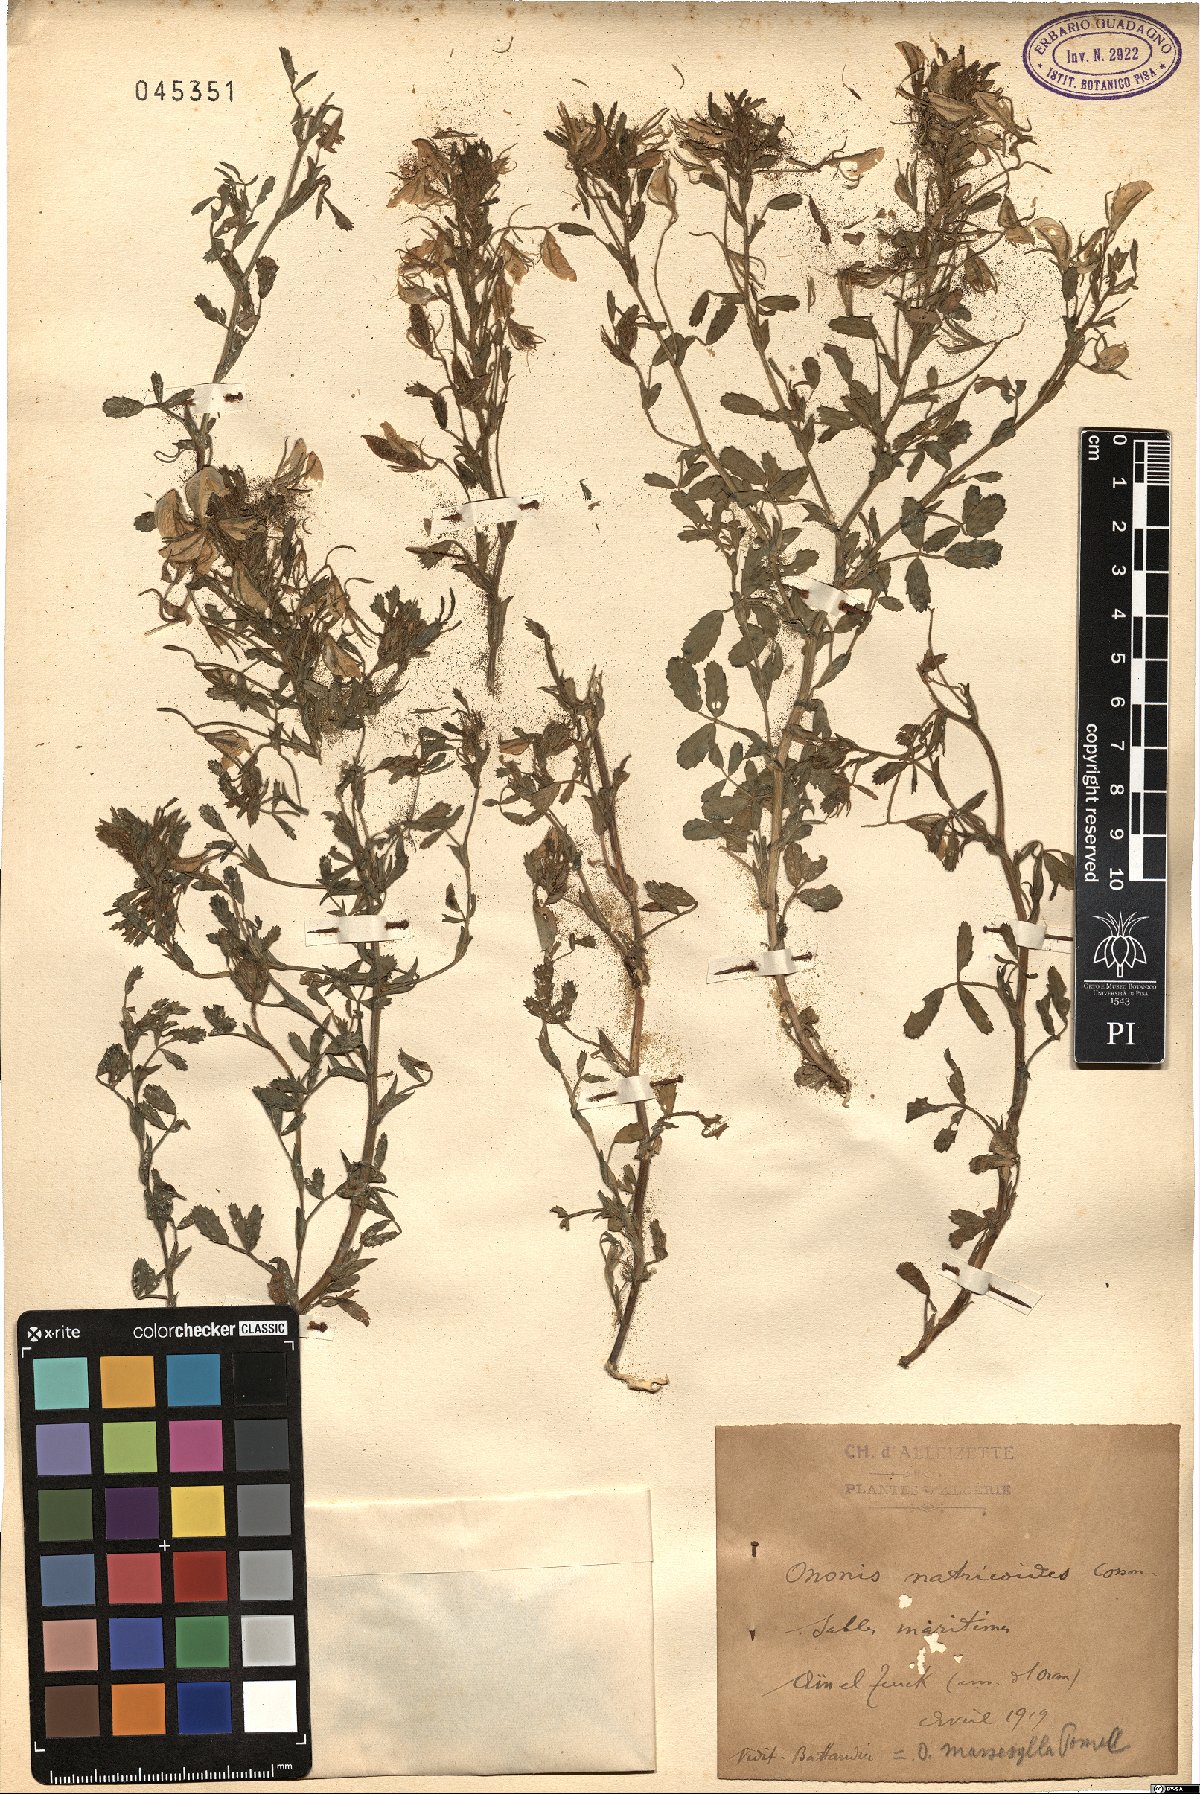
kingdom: Plantae
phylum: Tracheophyta
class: Magnoliopsida
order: Fabales
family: Fabaceae
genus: Ononis
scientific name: Ononis antennata
